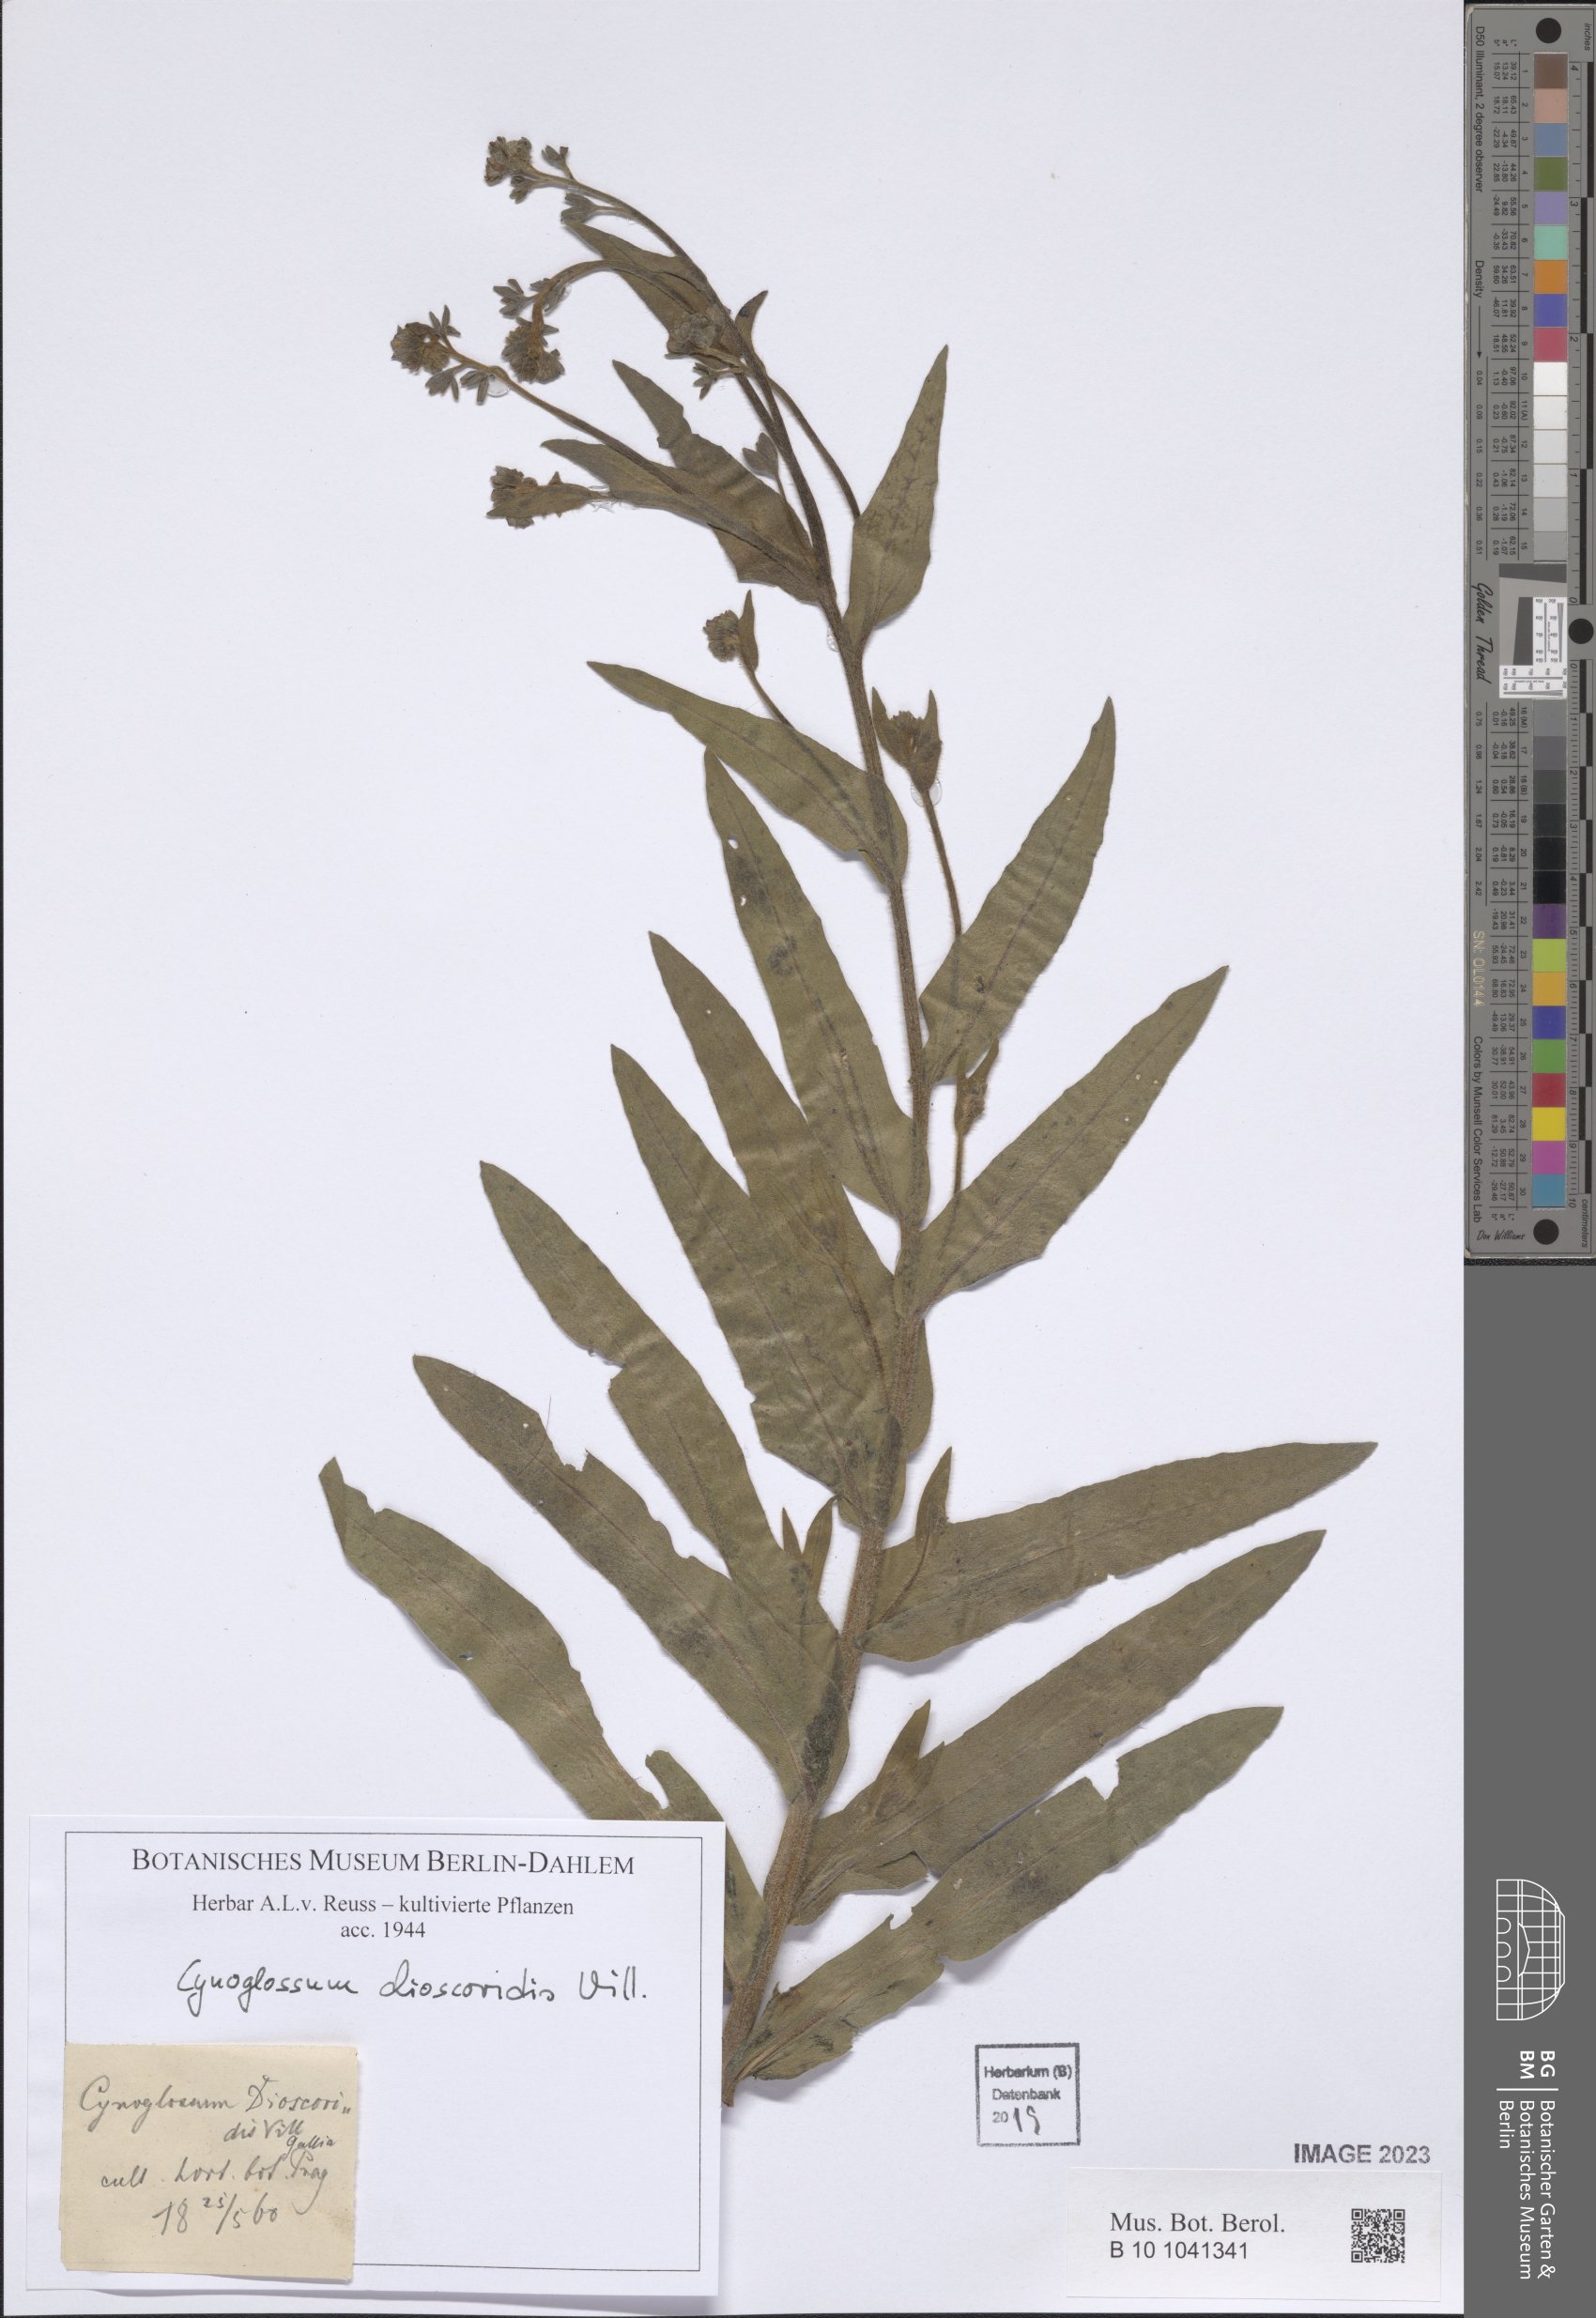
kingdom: Plantae
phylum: Tracheophyta
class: Magnoliopsida
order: Boraginales
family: Boraginaceae
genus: Cynoglossum
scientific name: Cynoglossum dioscoridis
